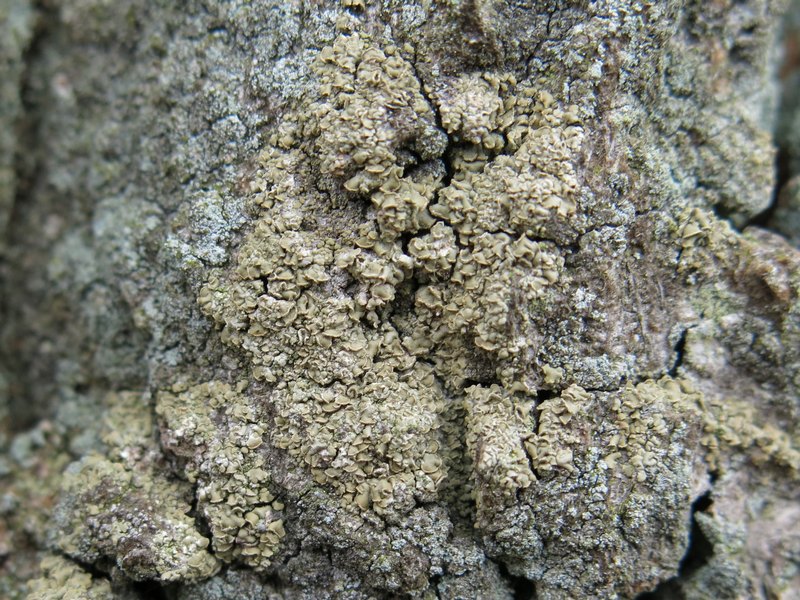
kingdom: Fungi
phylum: Ascomycota
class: Lecanoromycetes
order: Umbilicariales
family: Ophioparmaceae
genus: Hypocenomyce
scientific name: Hypocenomyce scalaris
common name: småskællet muslinglav
